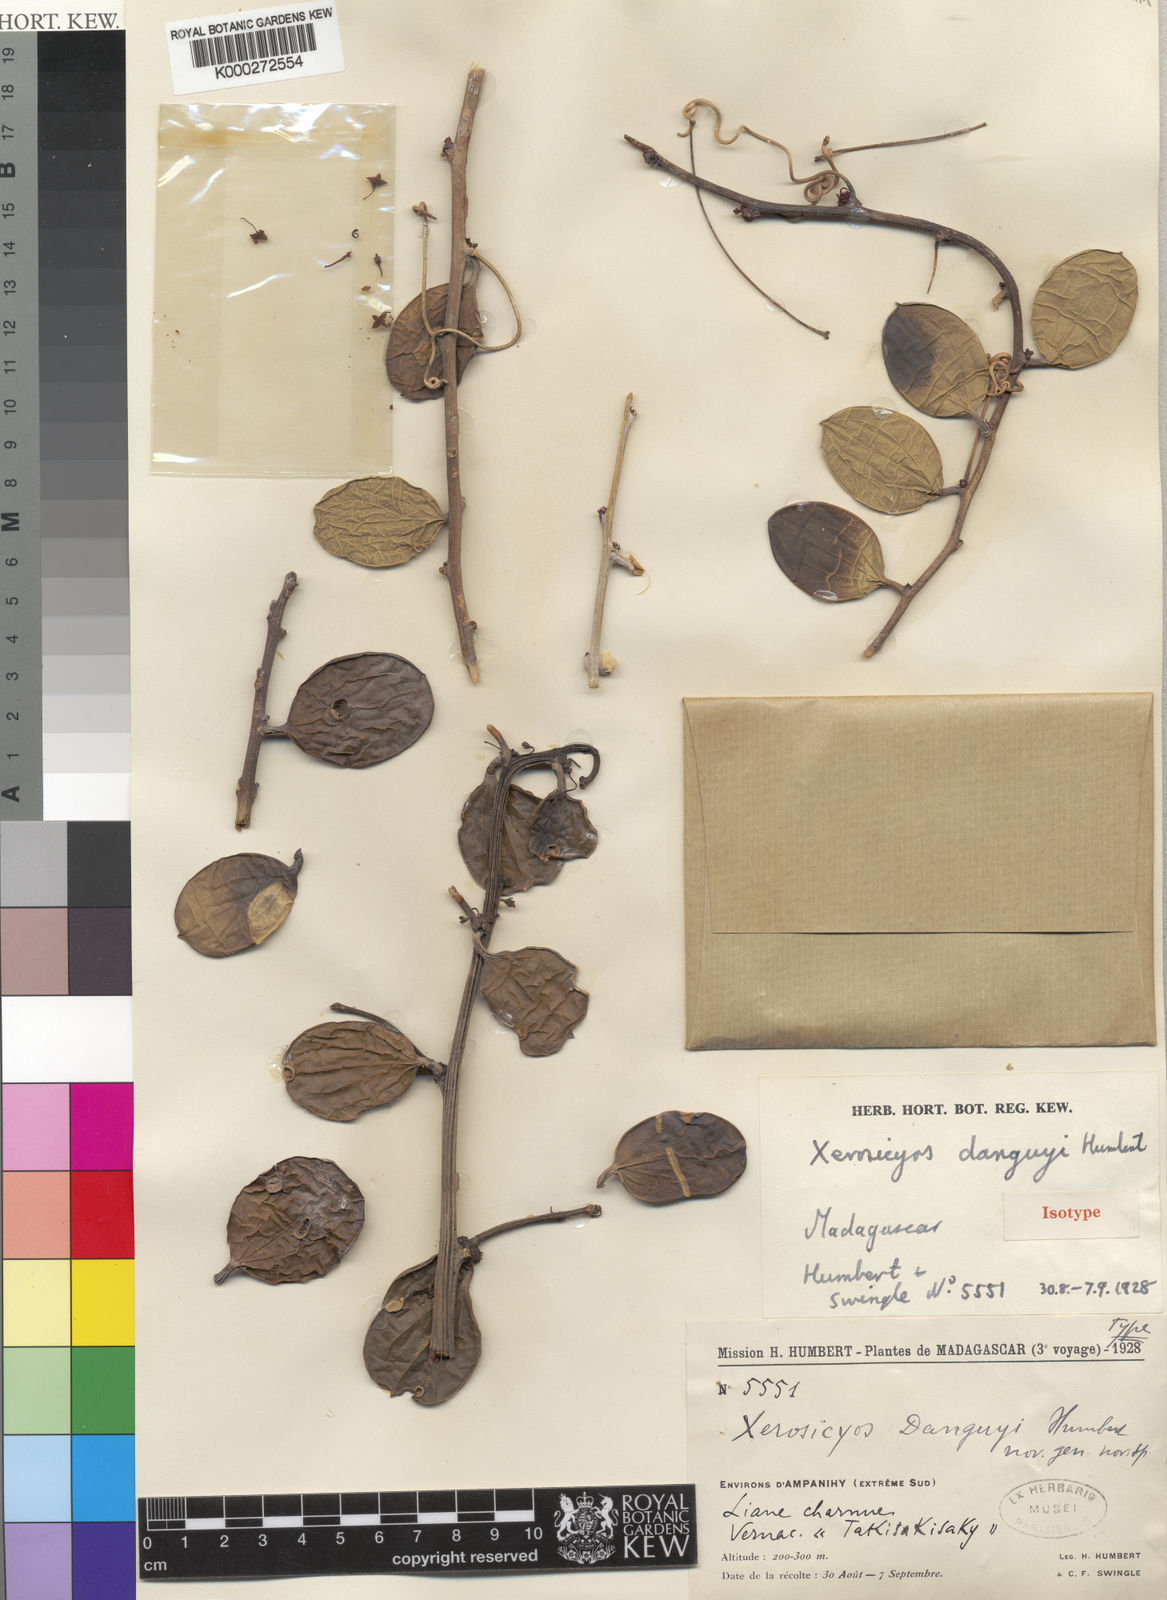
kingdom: Plantae
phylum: Tracheophyta
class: Magnoliopsida
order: Cucurbitales
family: Cucurbitaceae
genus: Xerosicyos
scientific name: Xerosicyos danguyi
